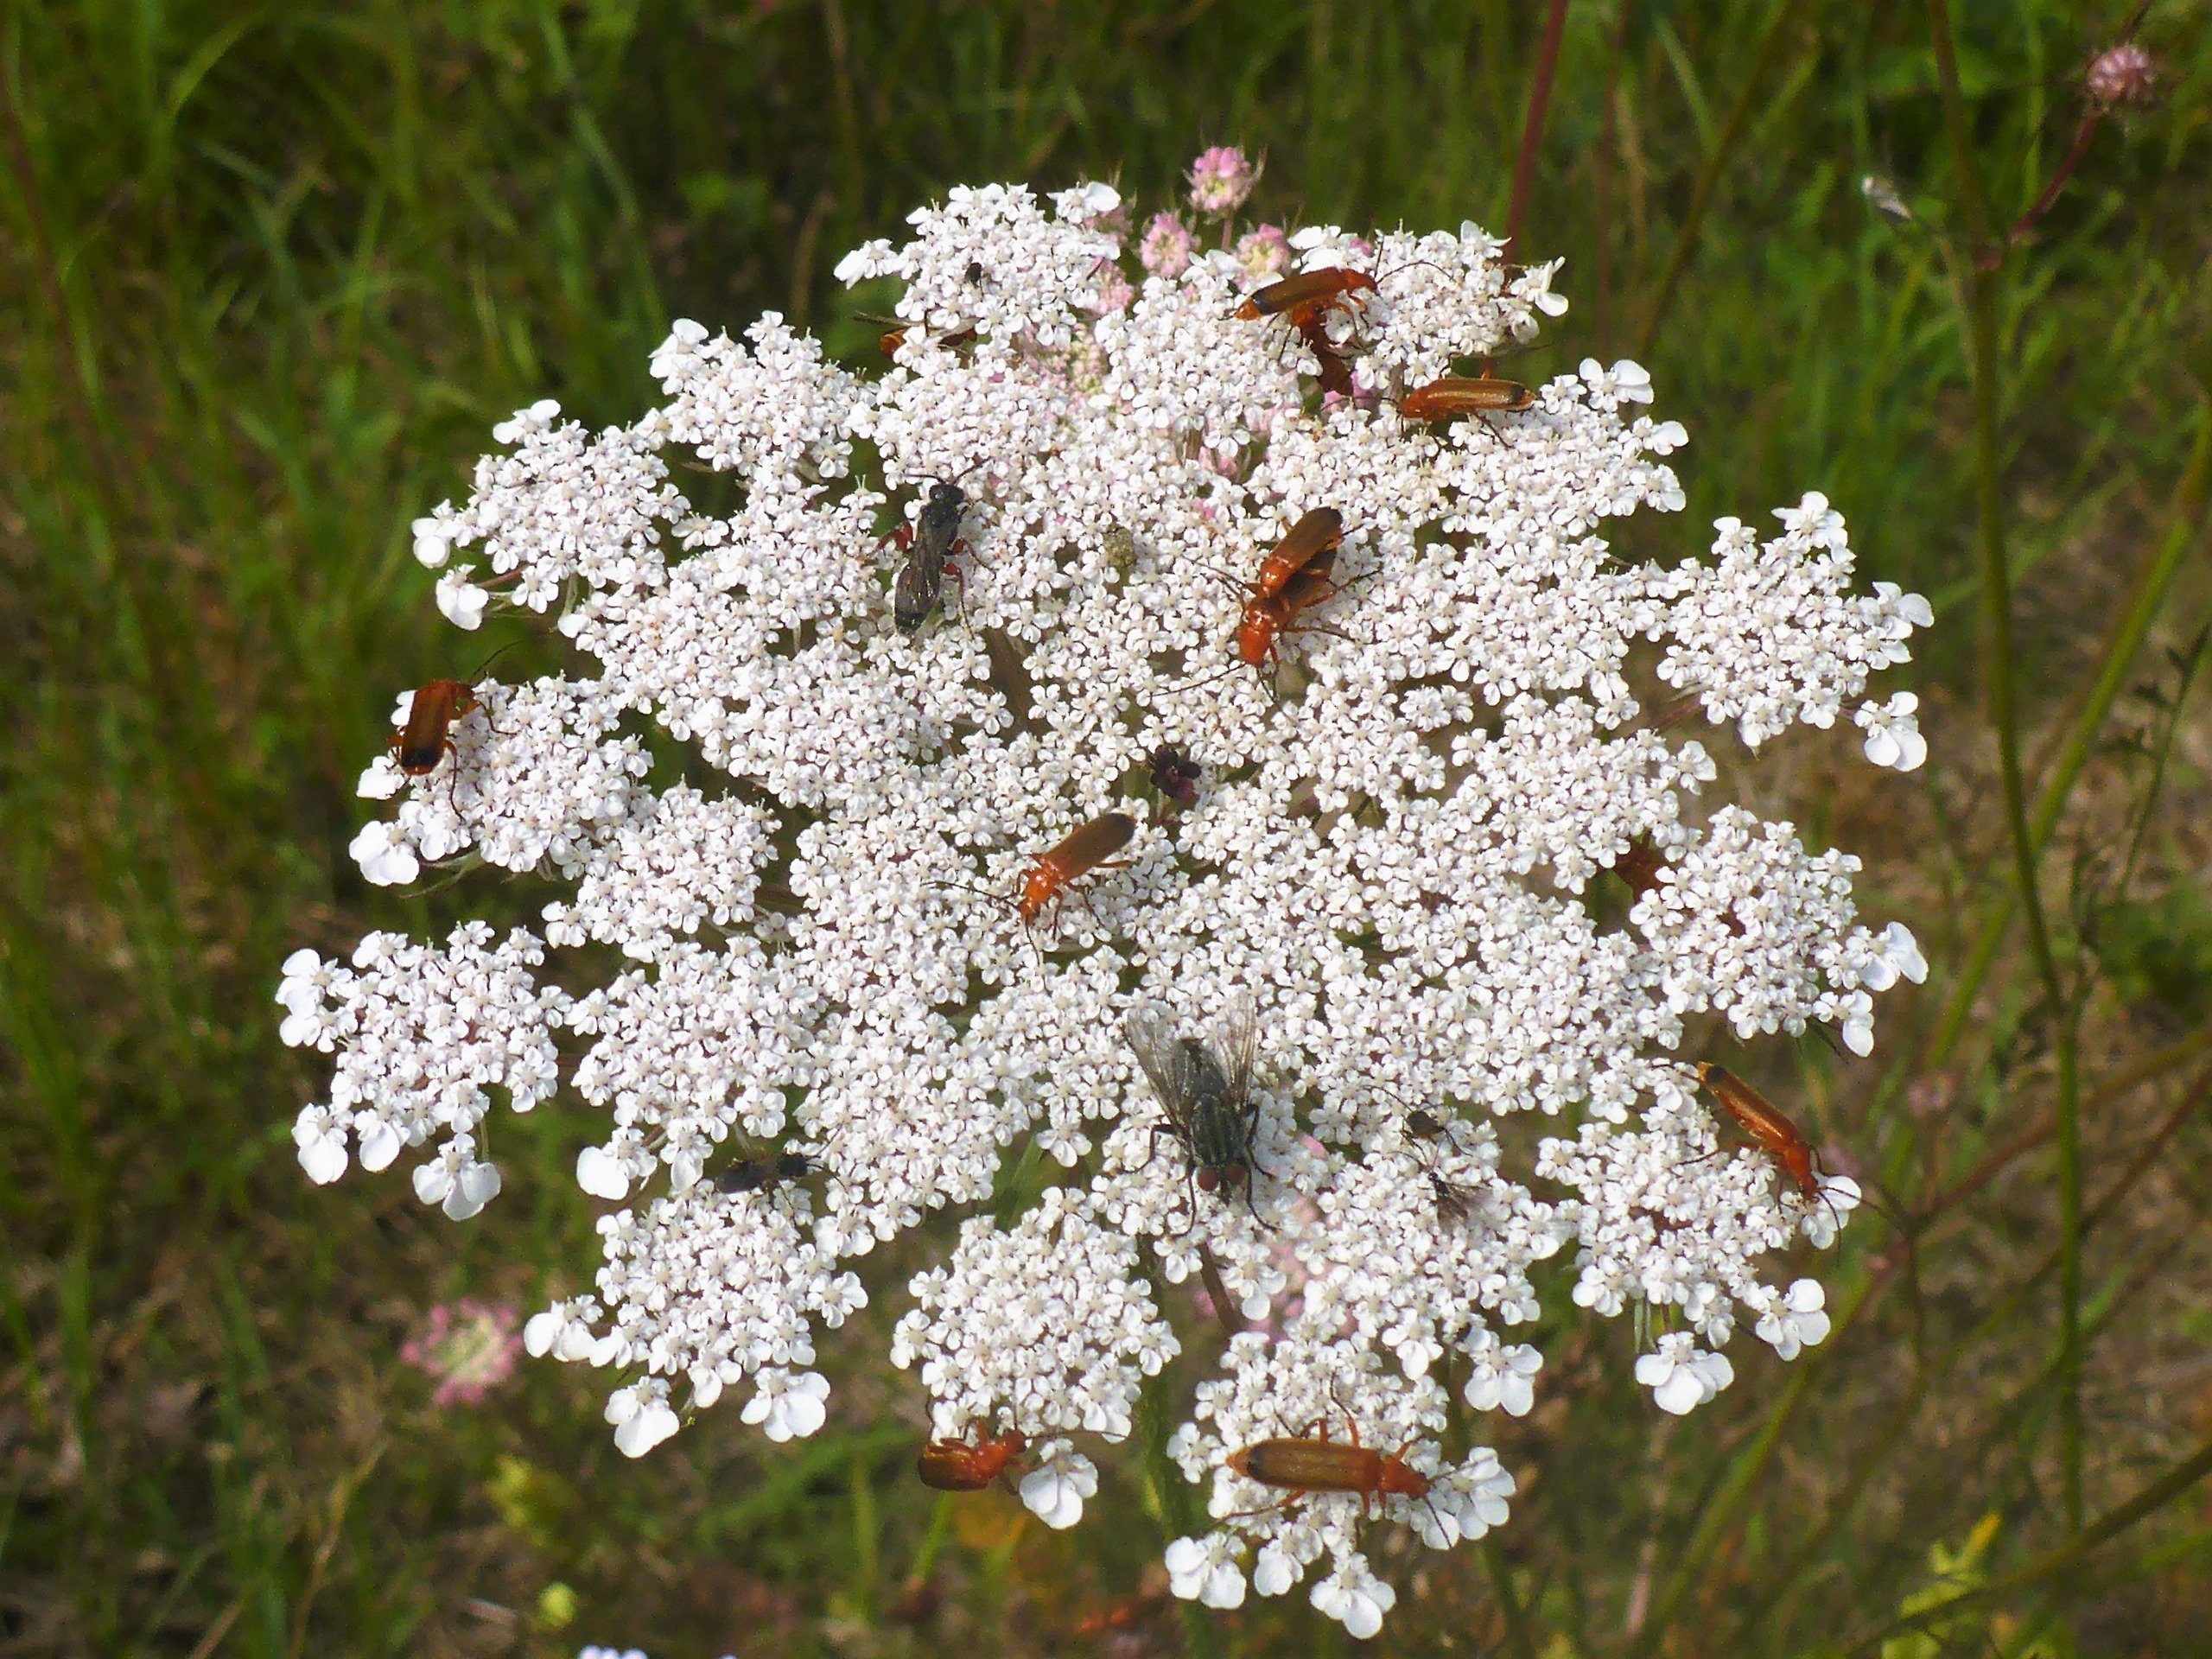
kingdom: Plantae
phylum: Tracheophyta
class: Magnoliopsida
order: Apiales
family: Apiaceae
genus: Daucus
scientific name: Daucus carota
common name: Gulerod
